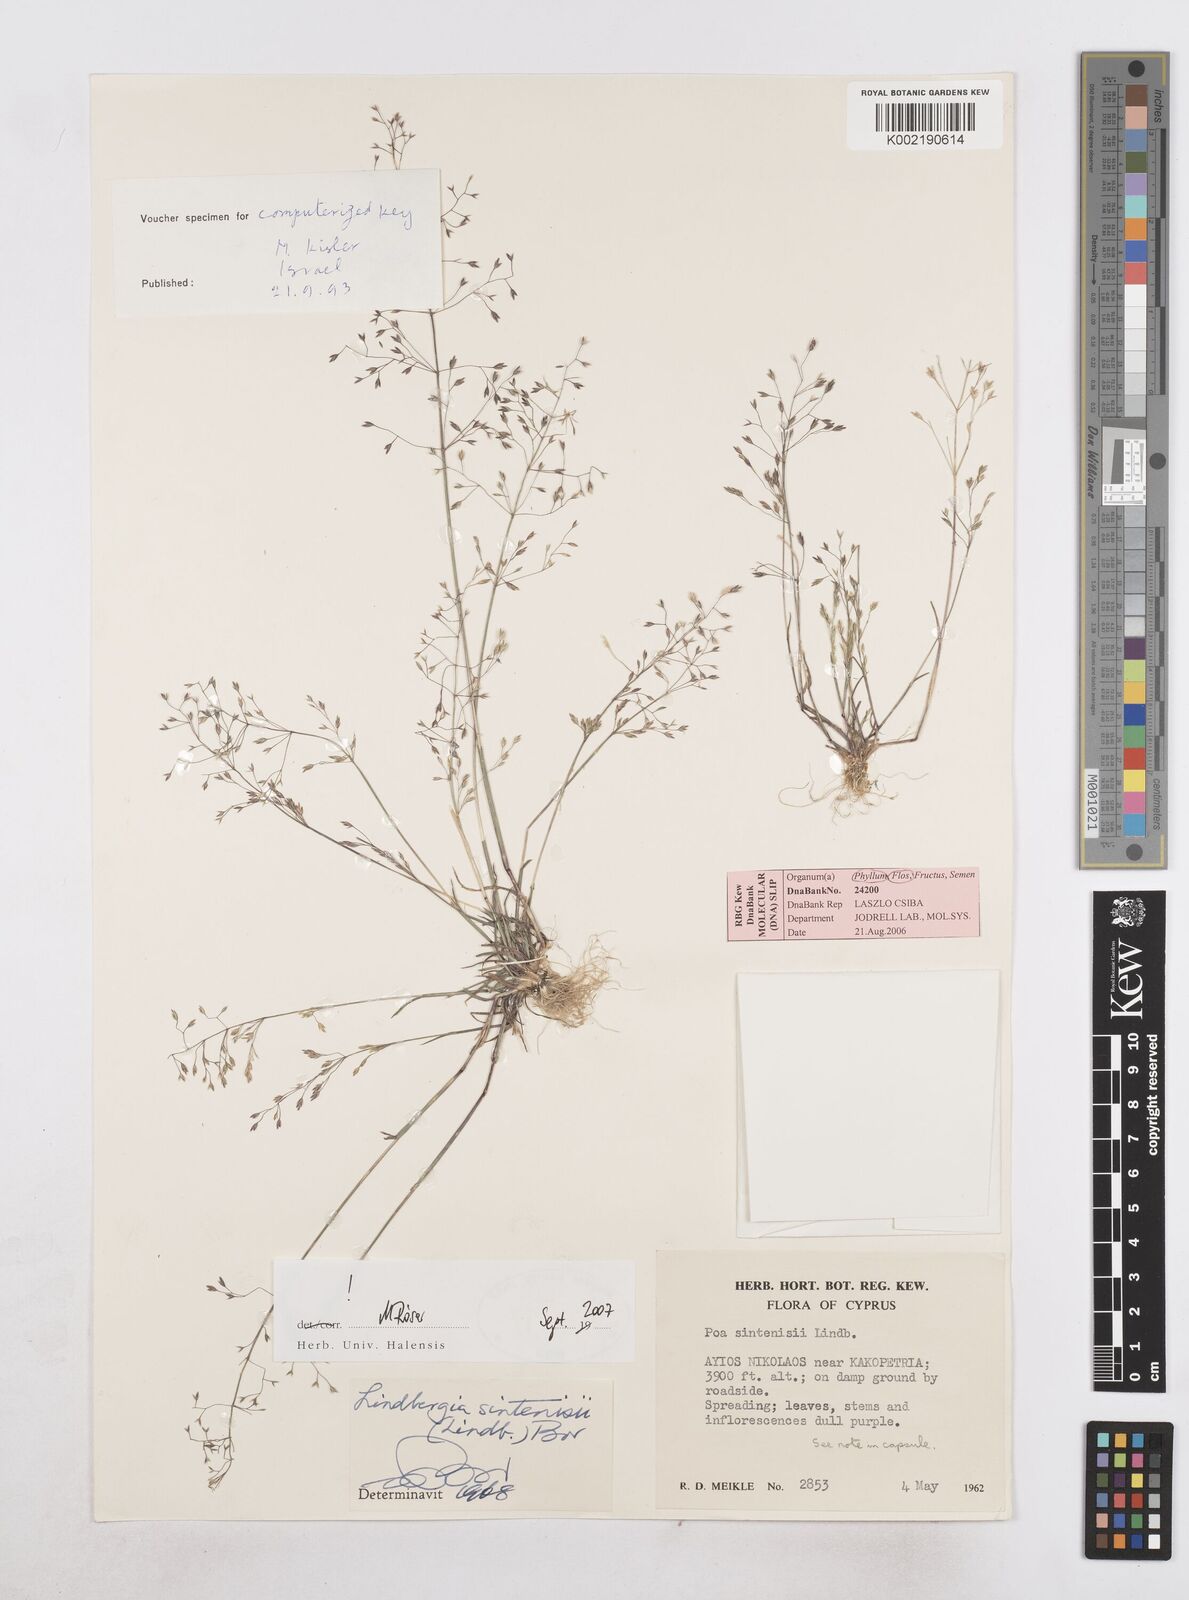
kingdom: Plantae
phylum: Tracheophyta
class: Liliopsida
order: Poales
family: Poaceae
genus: Poa
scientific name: Poa sintenisii
